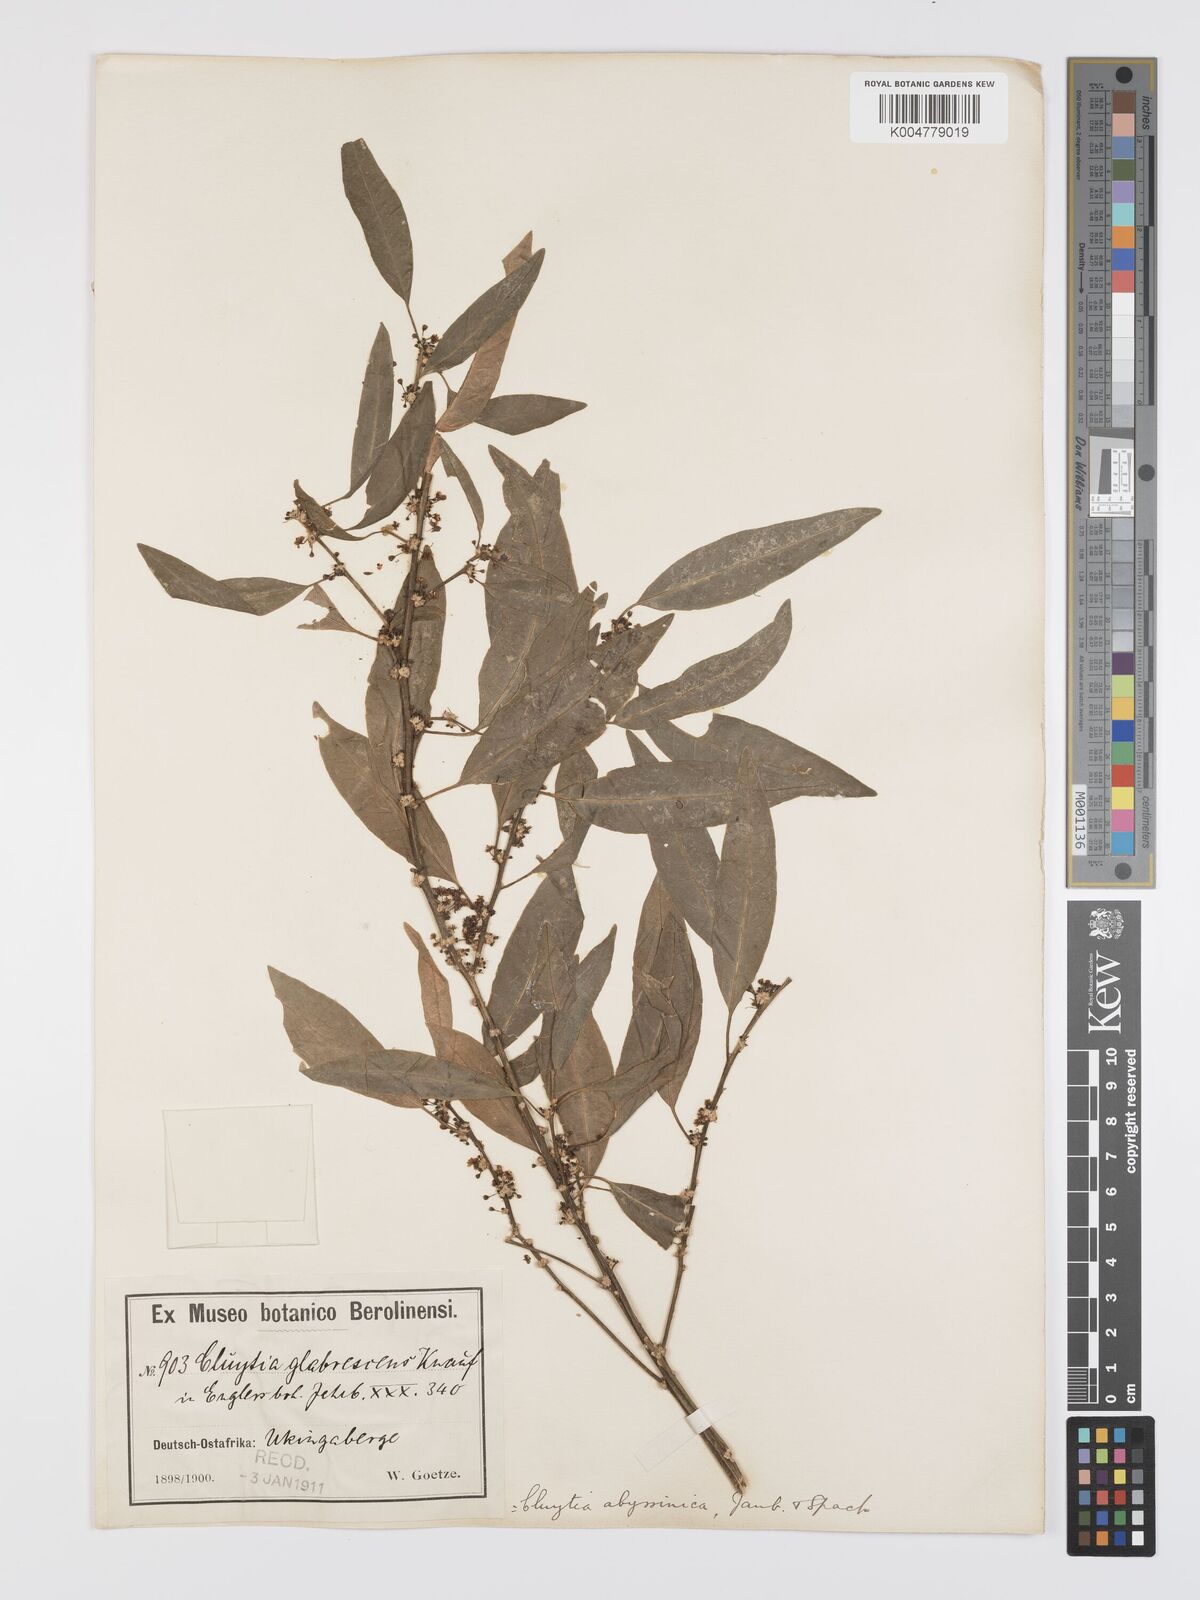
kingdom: Plantae
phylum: Tracheophyta
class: Magnoliopsida
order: Malpighiales
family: Peraceae
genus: Clutia
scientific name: Clutia abyssinica
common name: Large lightning bush
